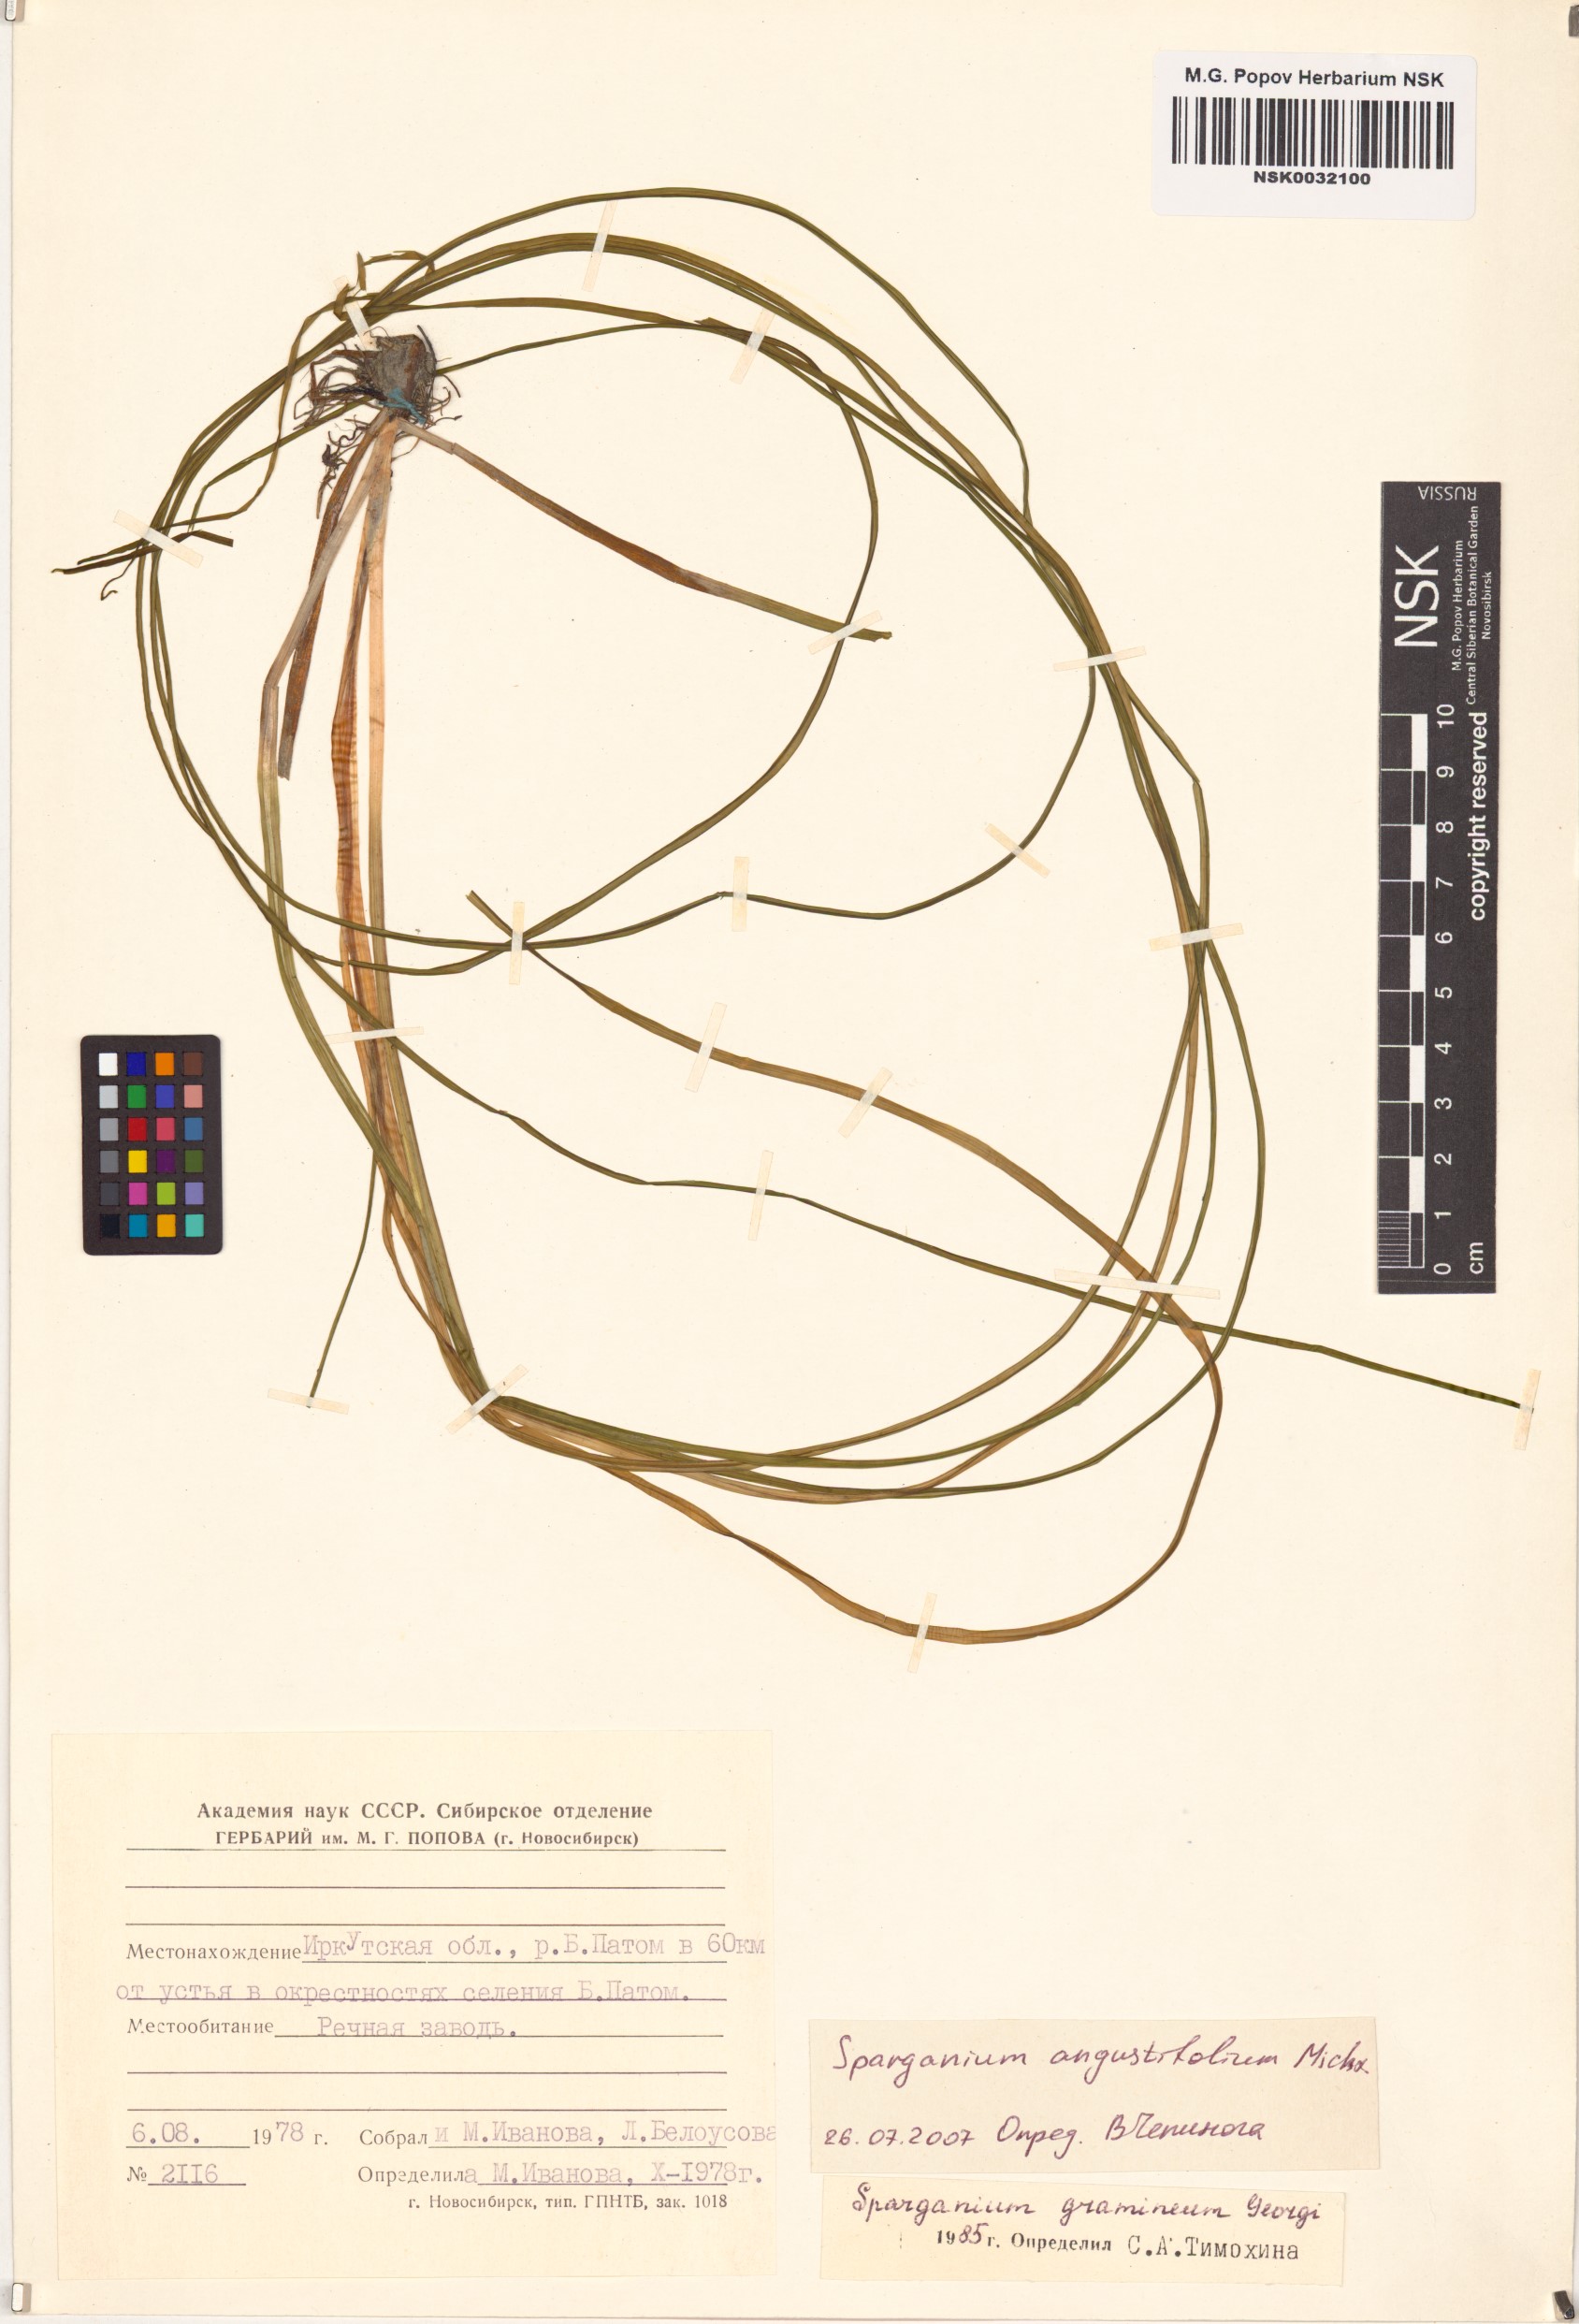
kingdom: Plantae
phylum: Tracheophyta
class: Liliopsida
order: Poales
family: Typhaceae
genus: Sparganium
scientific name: Sparganium angustifolium
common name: Floating bur-reed
